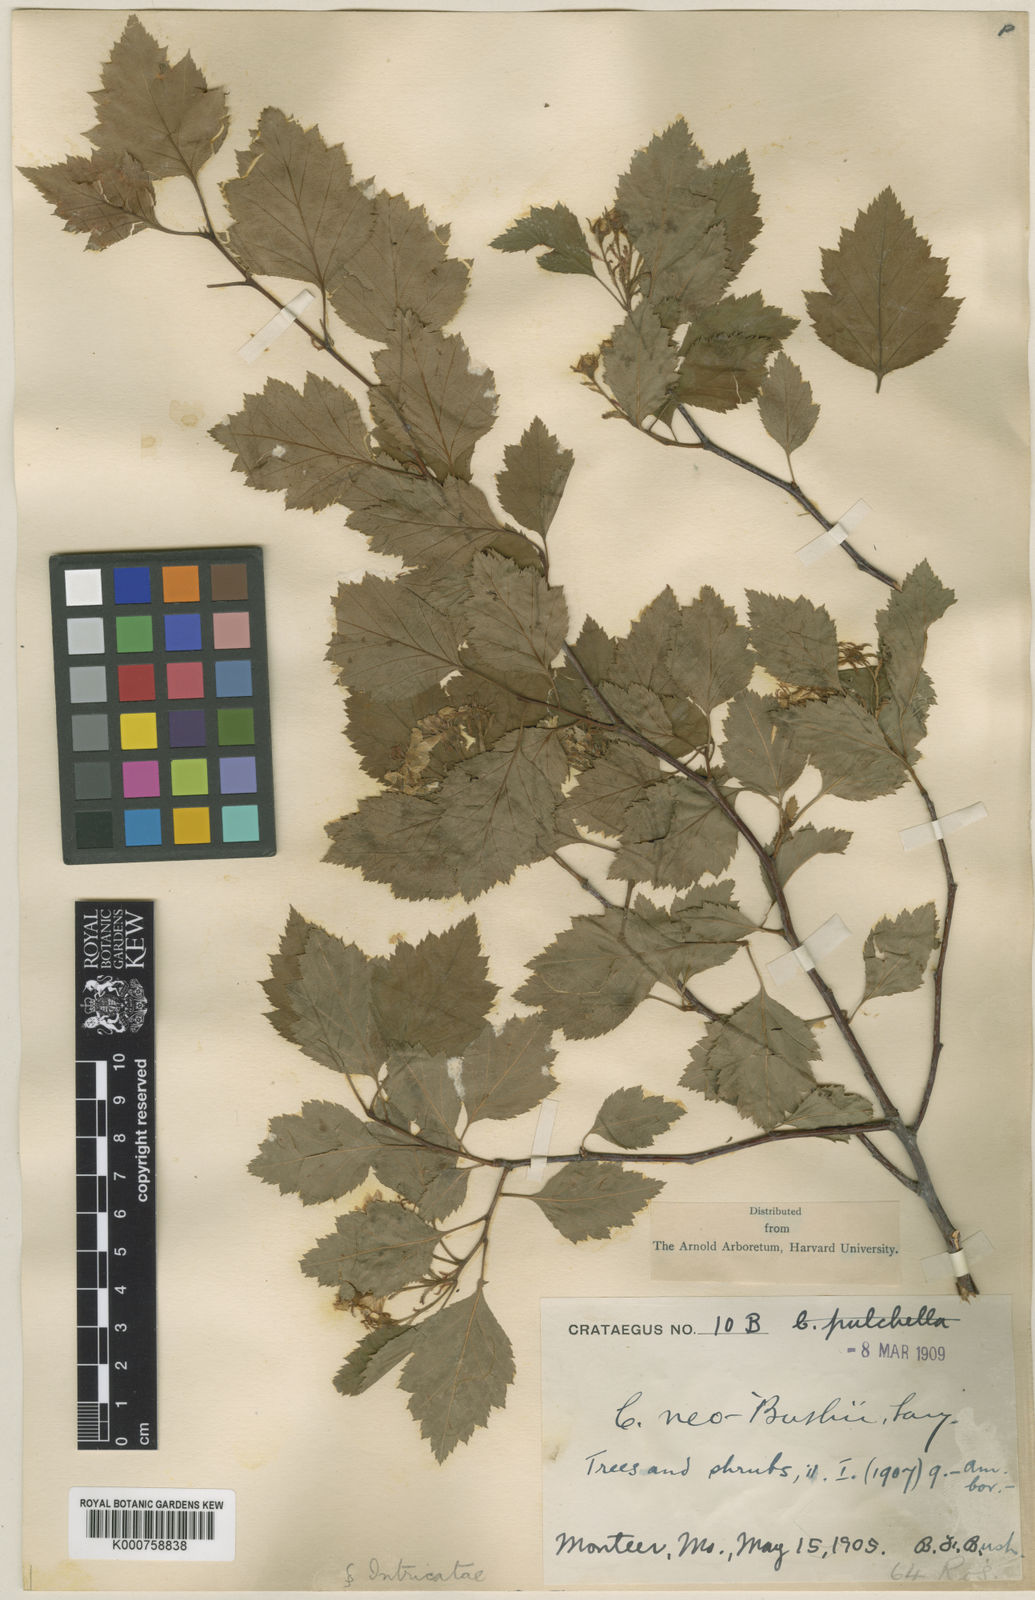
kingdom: Plantae
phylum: Tracheophyta
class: Magnoliopsida
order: Rosales
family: Rosaceae
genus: Crataegus
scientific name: Crataegus neobushii
